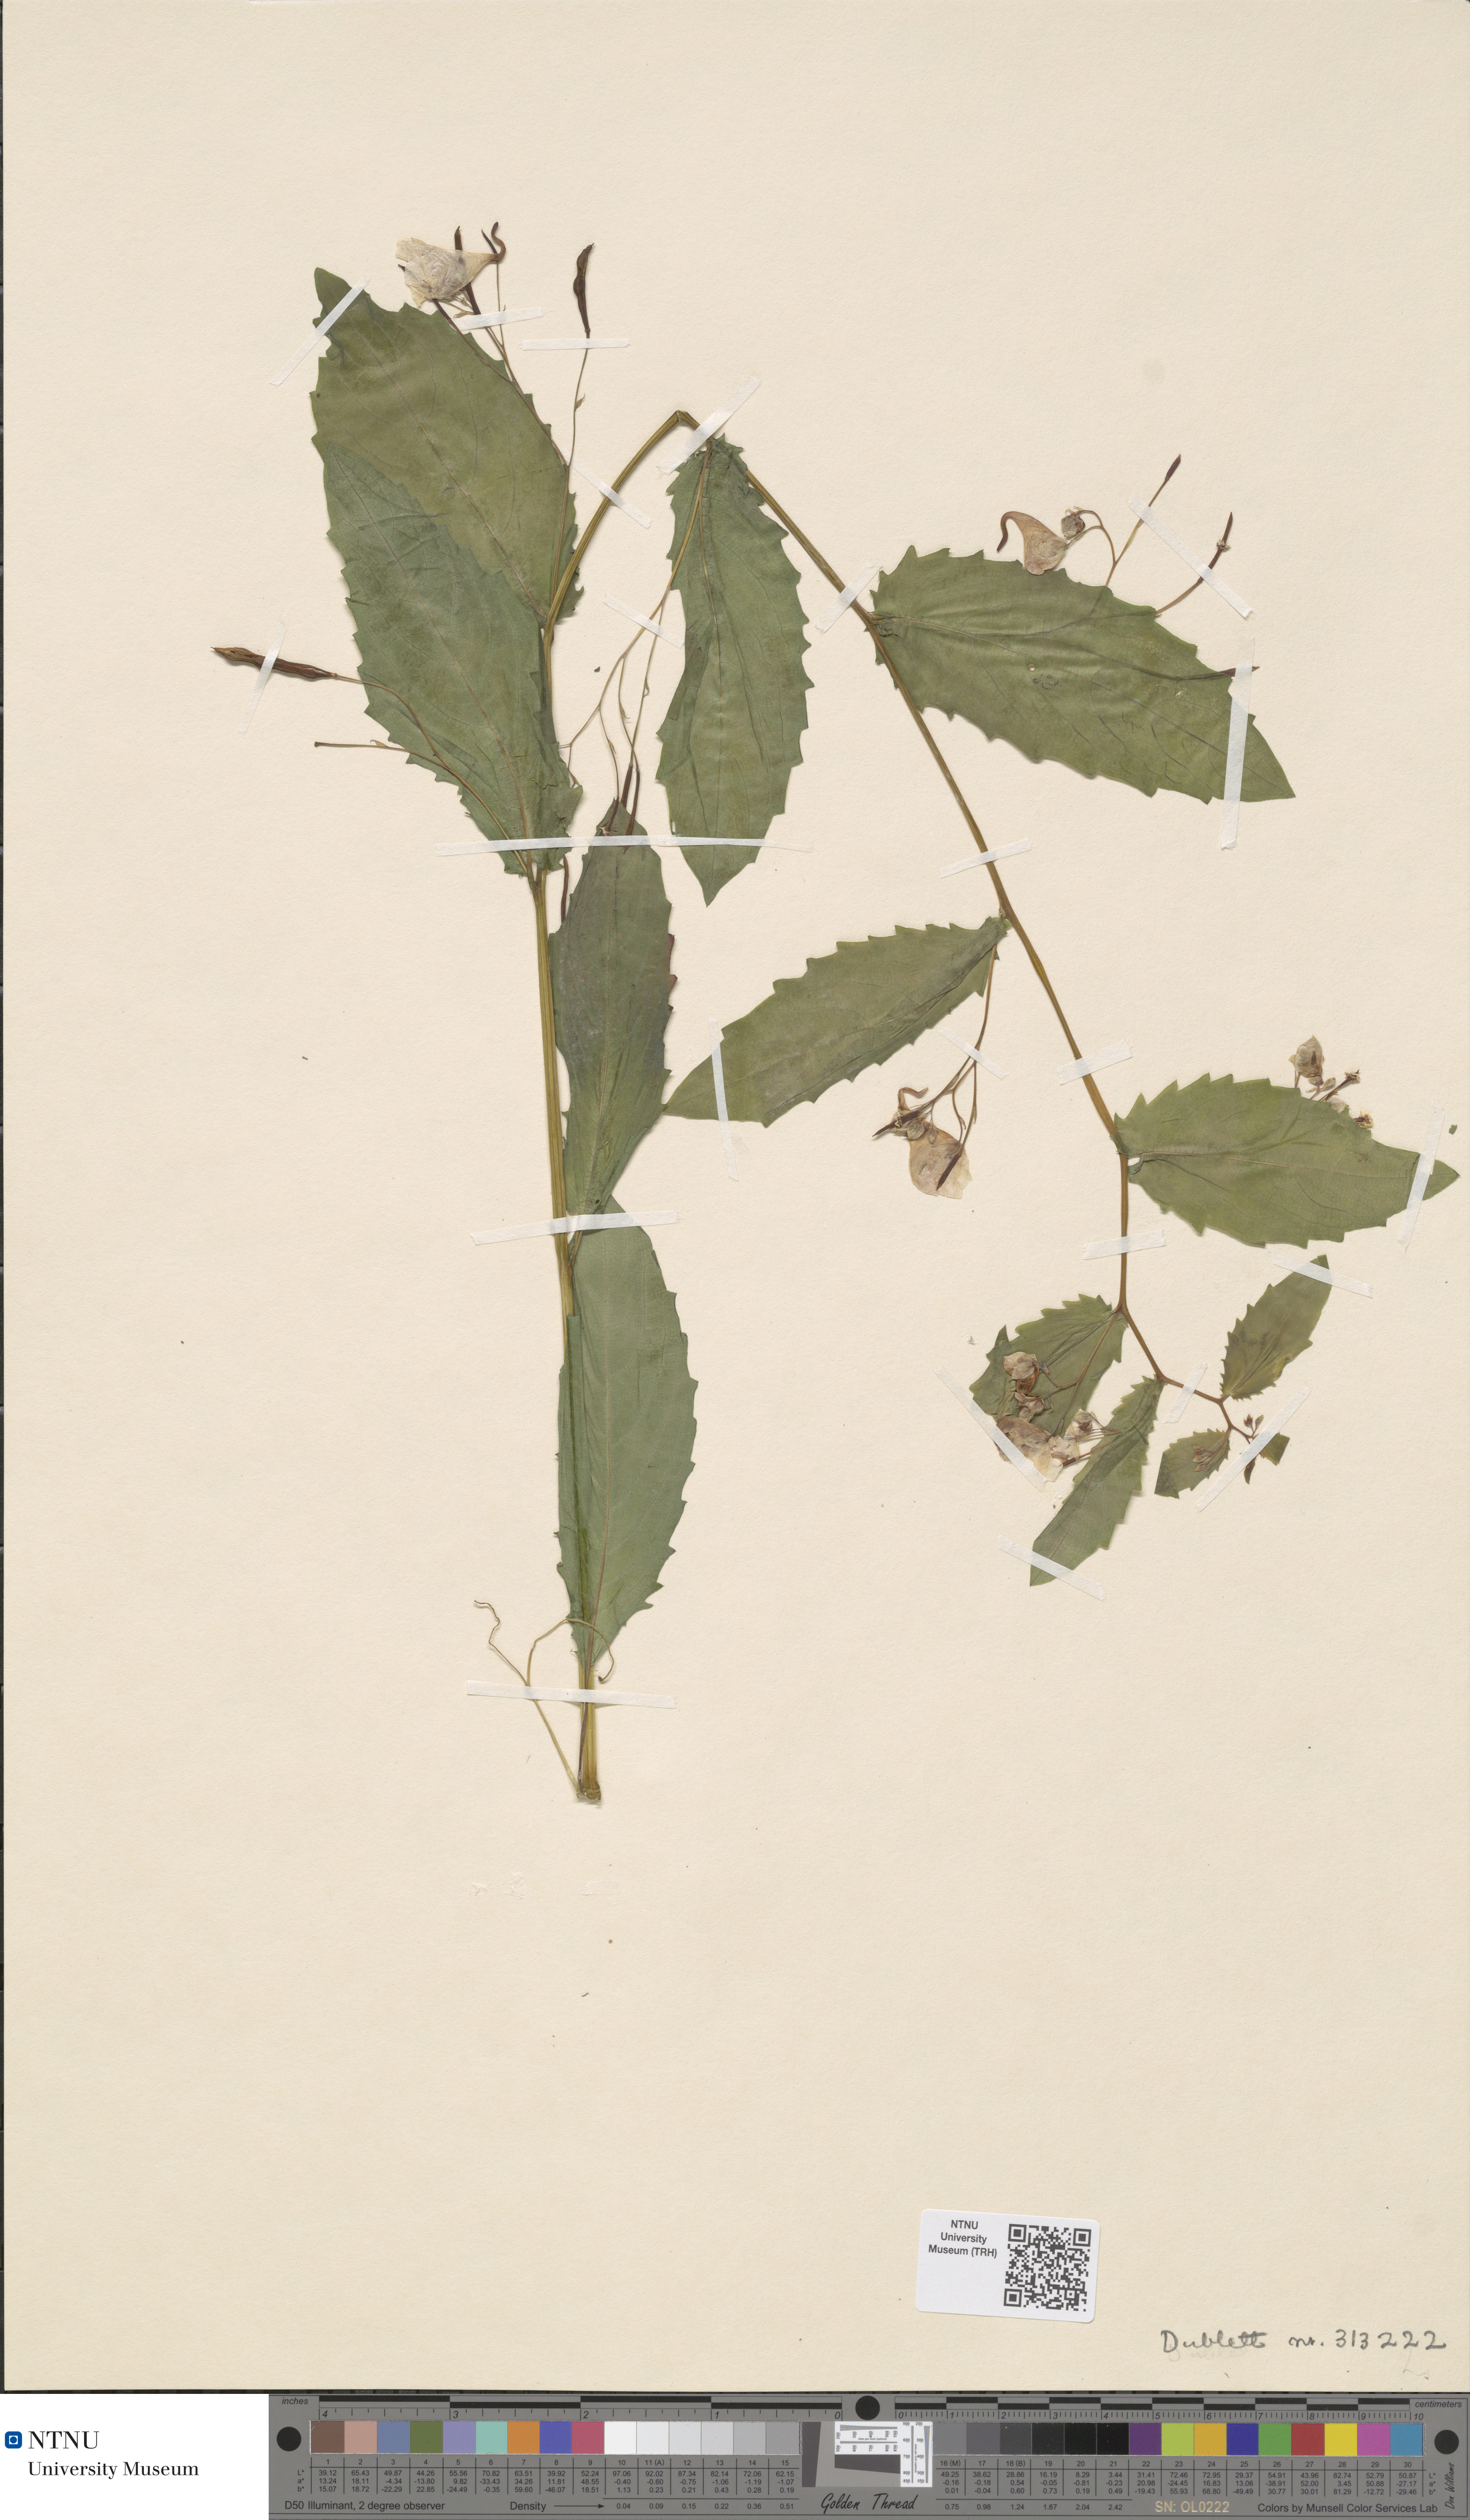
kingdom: Plantae
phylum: Tracheophyta
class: Magnoliopsida
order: Ericales
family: Balsaminaceae
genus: Impatiens
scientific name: Impatiens noli-tangere
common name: Touch-me-not balsam
